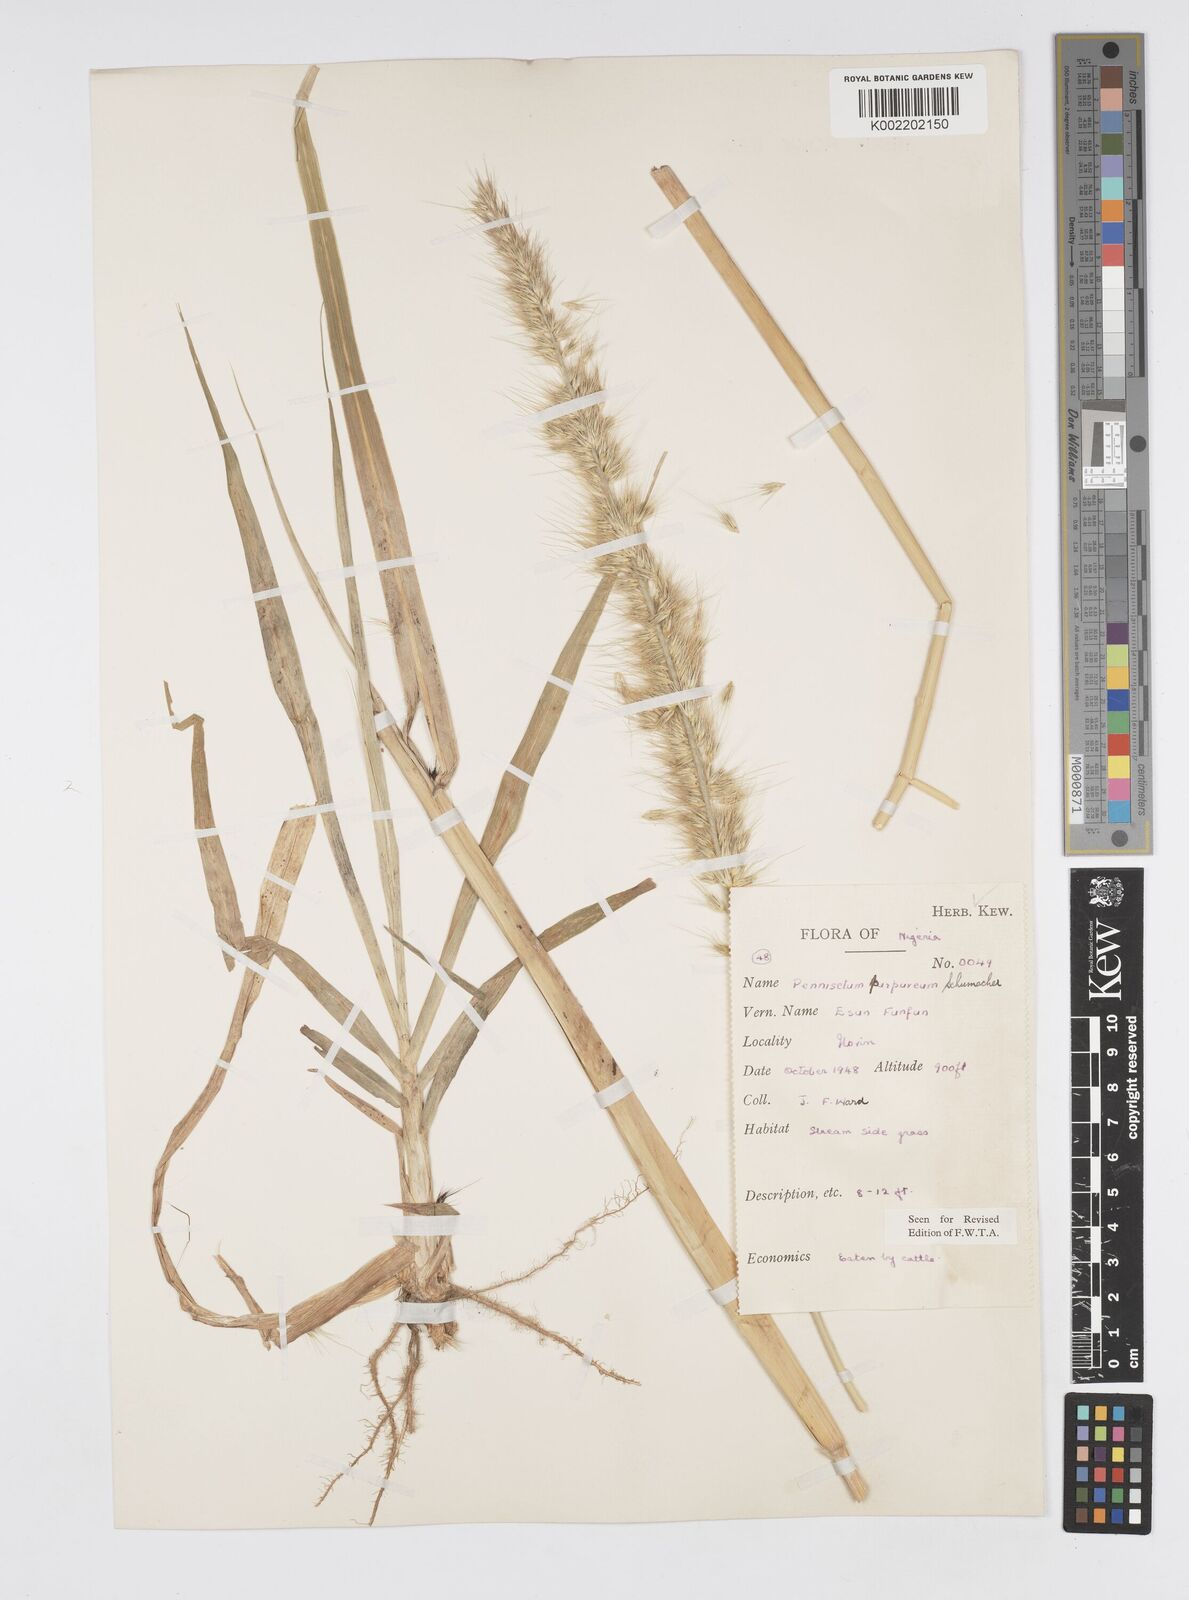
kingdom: Plantae
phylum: Tracheophyta
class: Liliopsida
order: Poales
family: Poaceae
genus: Cenchrus
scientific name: Cenchrus purpureus
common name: Elephant grass
